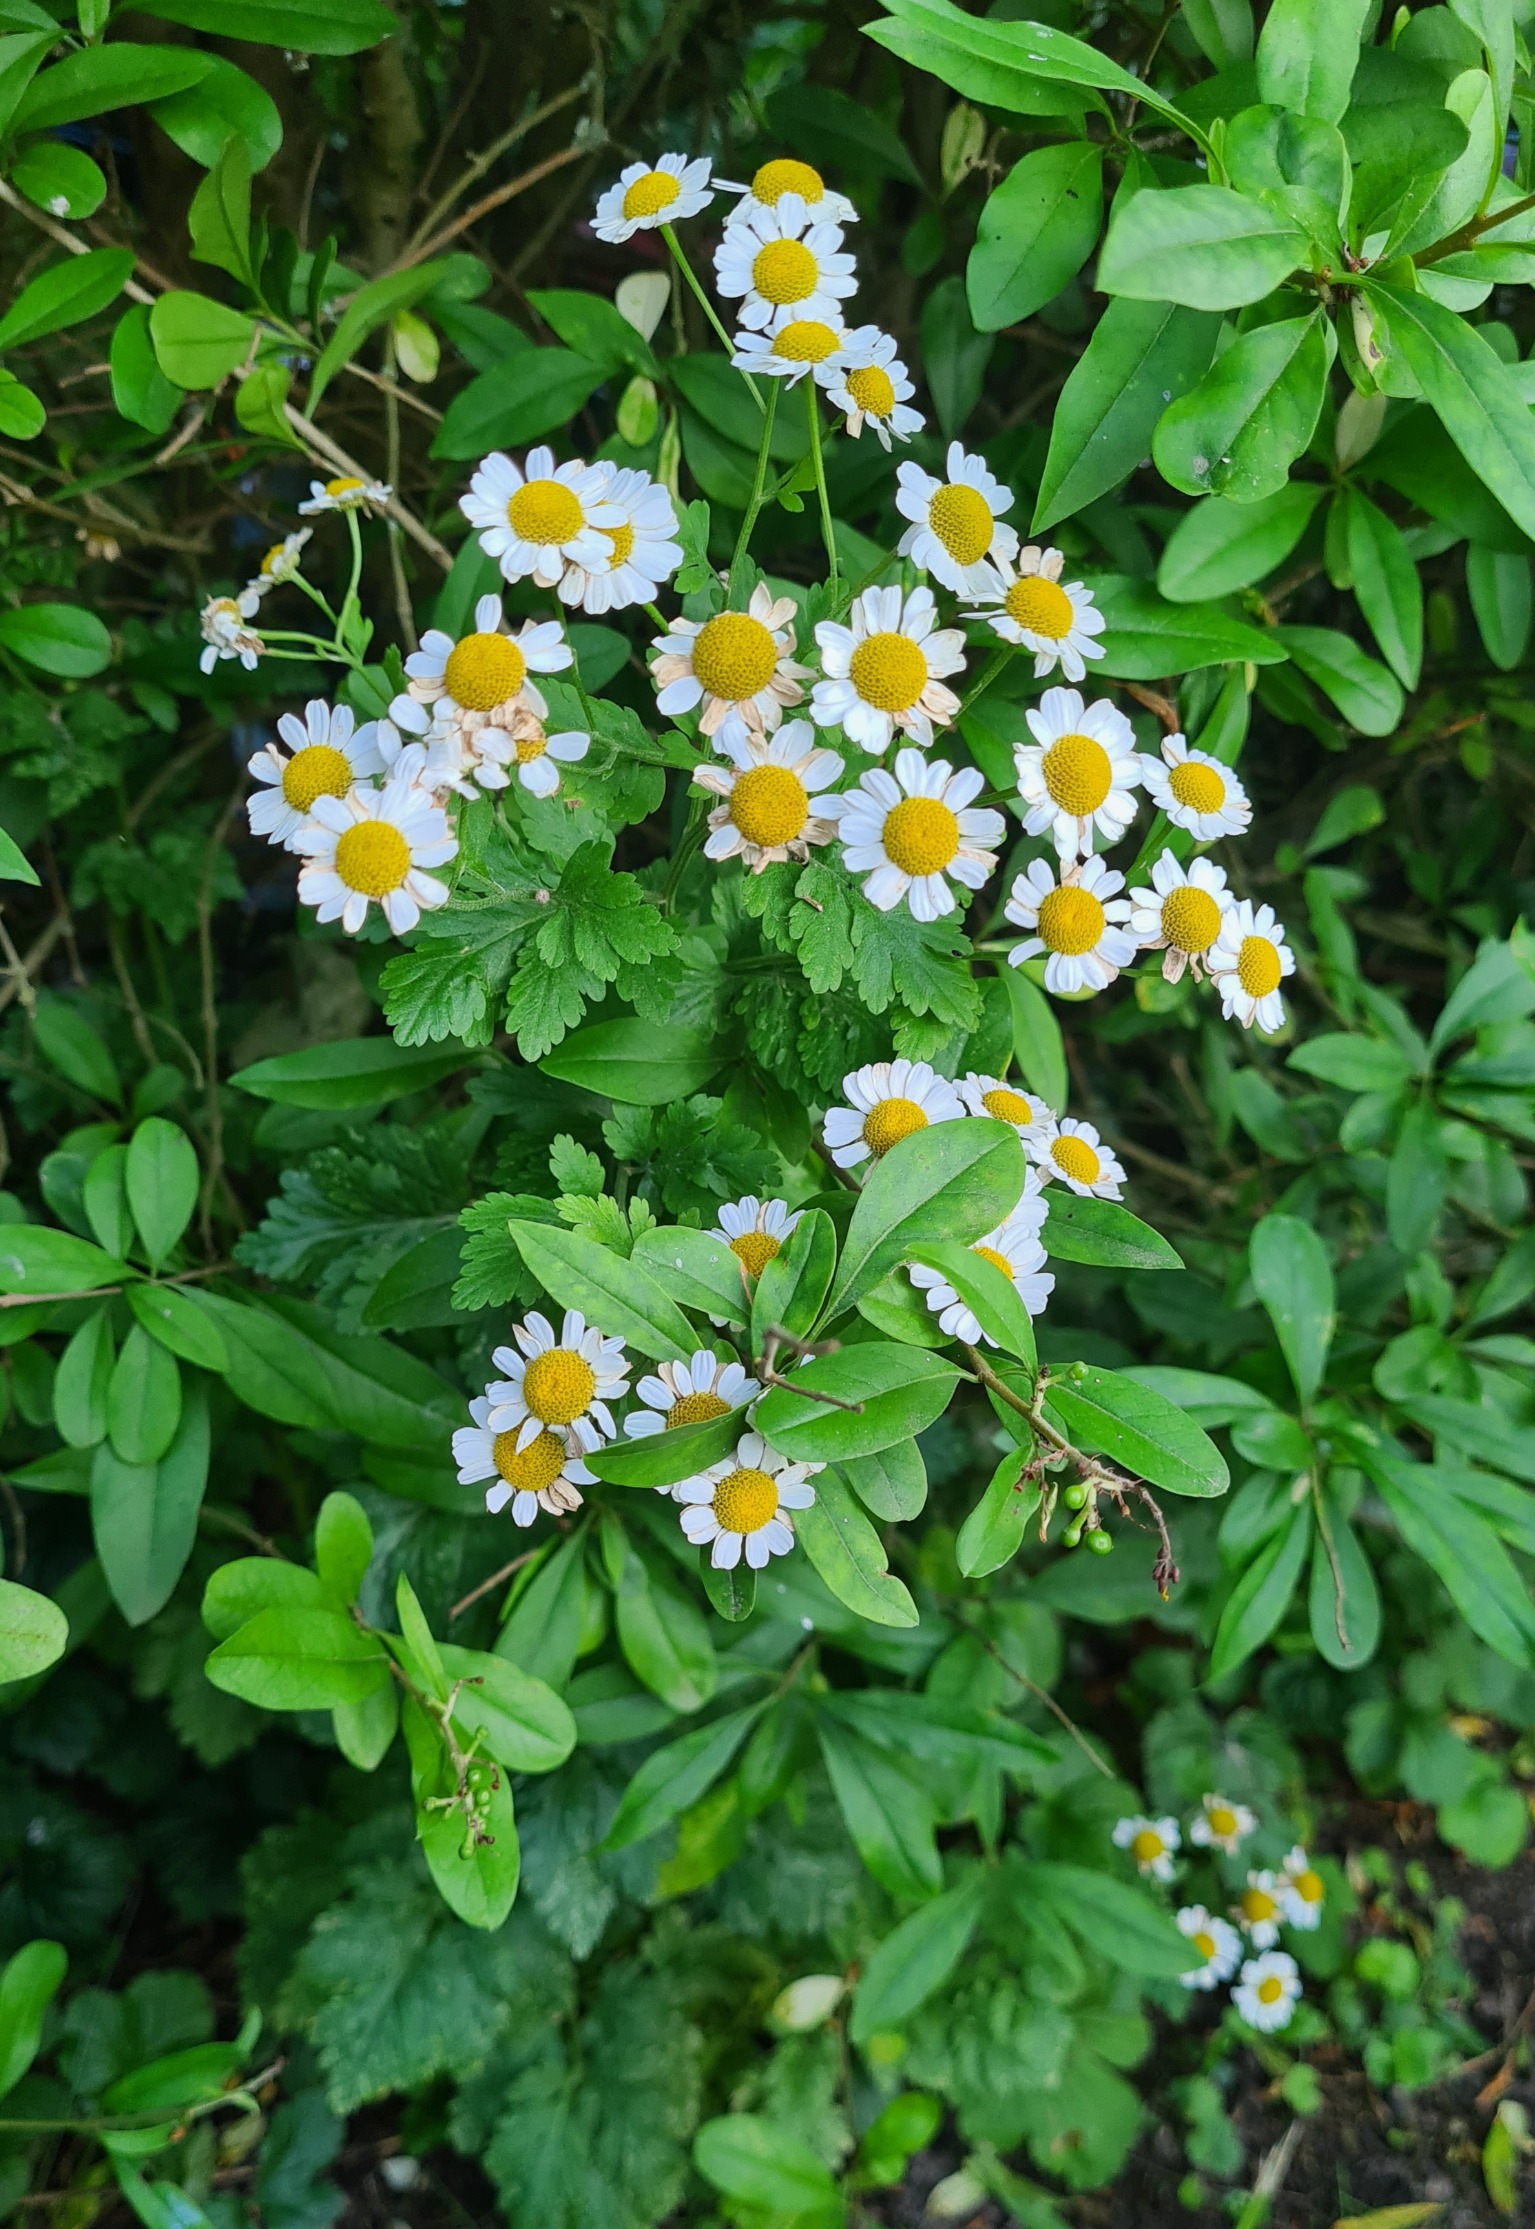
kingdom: Plantae
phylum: Tracheophyta
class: Magnoliopsida
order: Asterales
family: Asteraceae
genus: Tanacetum
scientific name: Tanacetum parthenium
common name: Matrem
